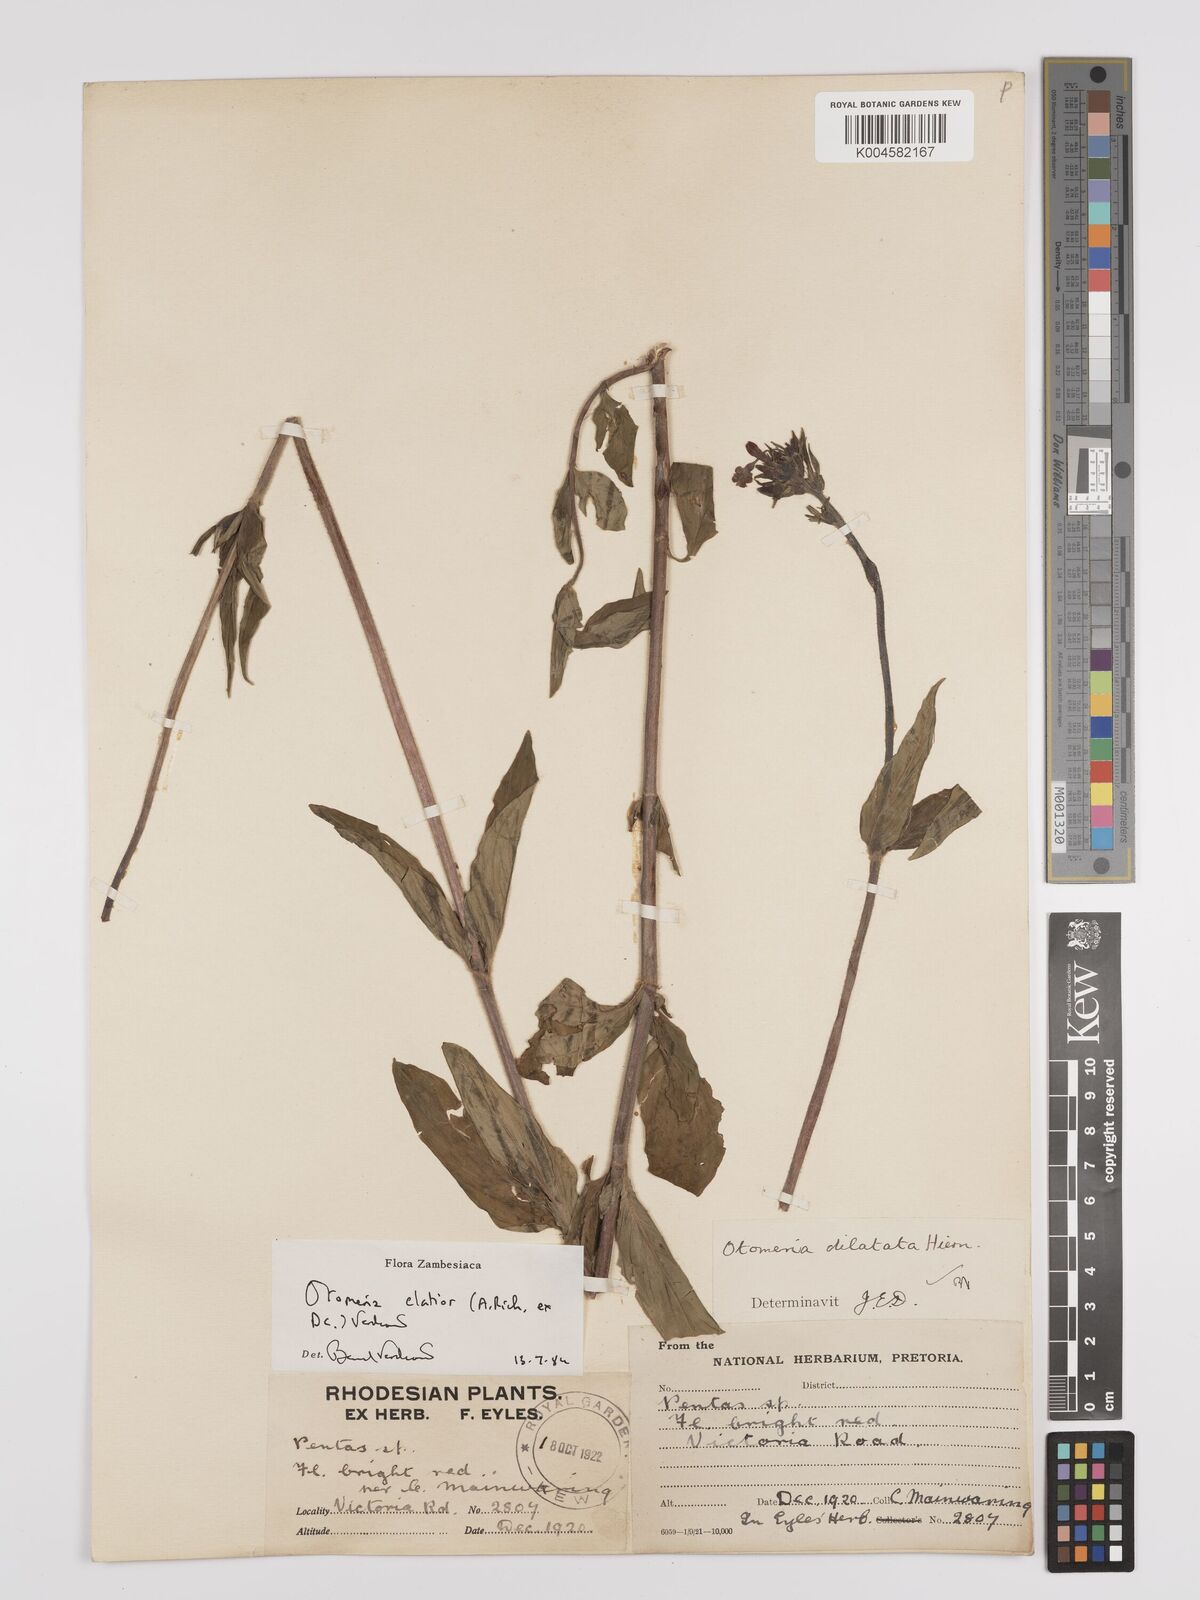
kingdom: Plantae
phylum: Tracheophyta
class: Magnoliopsida
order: Gentianales
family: Rubiaceae
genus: Otomeria
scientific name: Otomeria elatior
